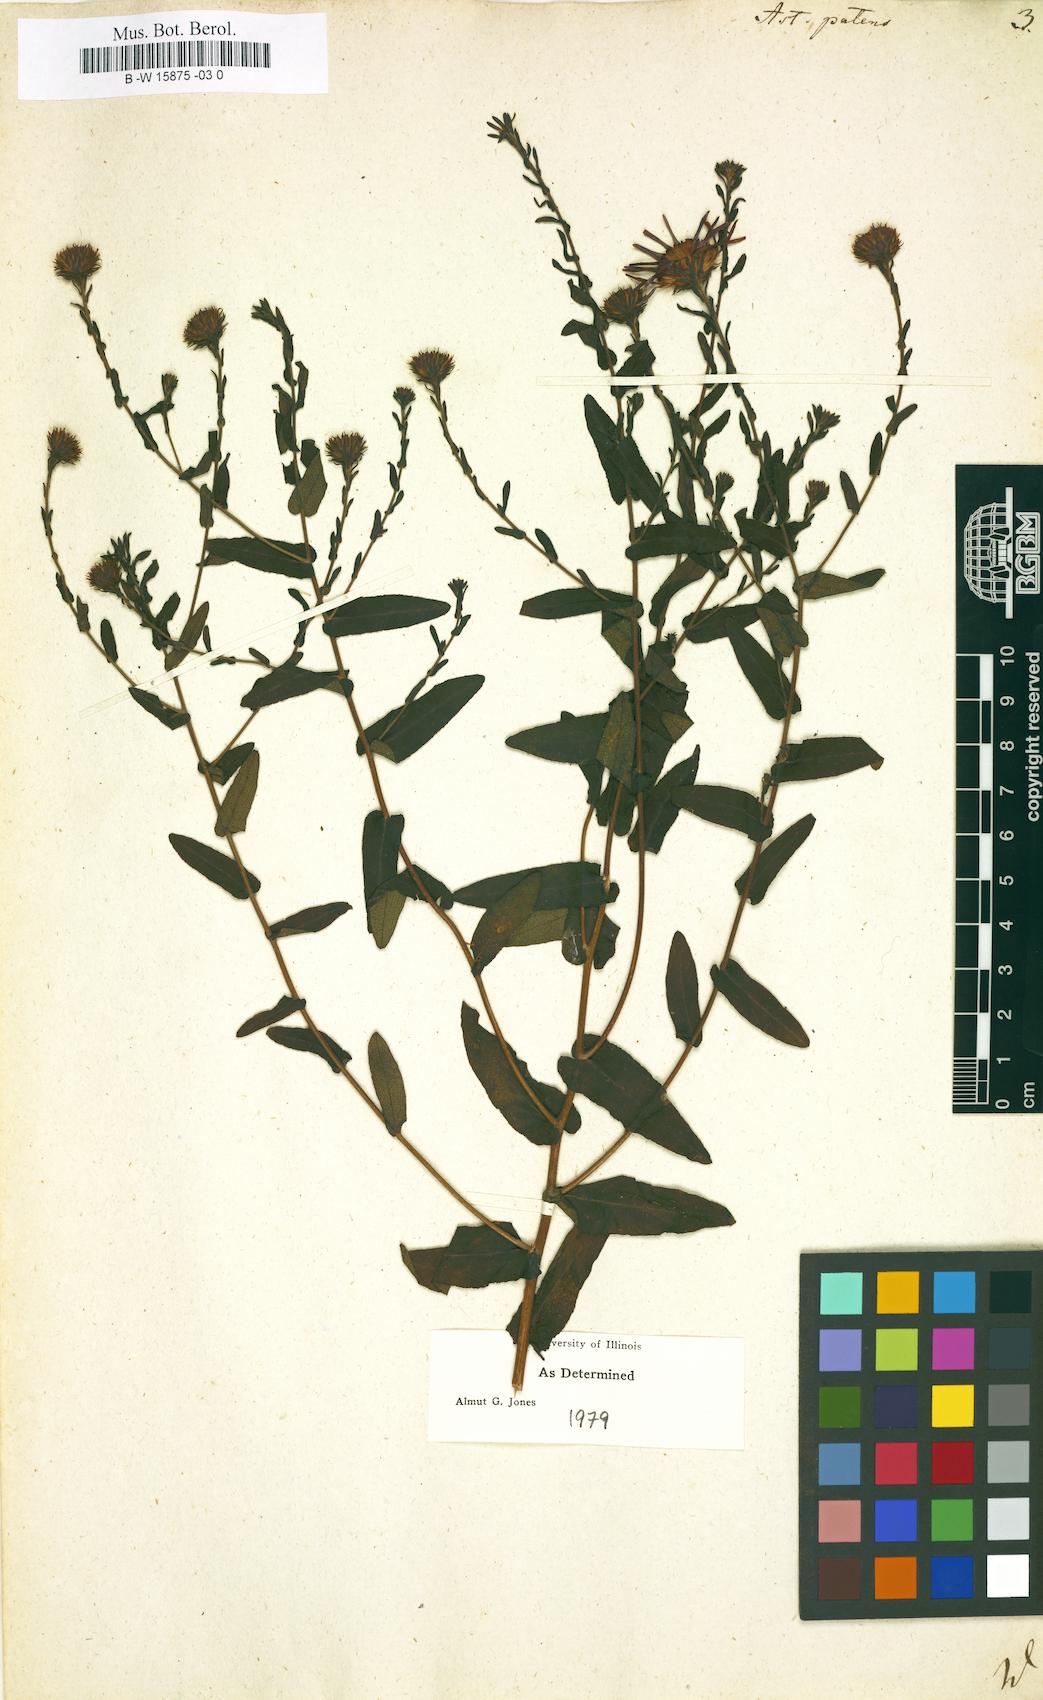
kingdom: Plantae
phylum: Tracheophyta
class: Magnoliopsida
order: Asterales
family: Asteraceae
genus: Aster
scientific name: Aster patens
